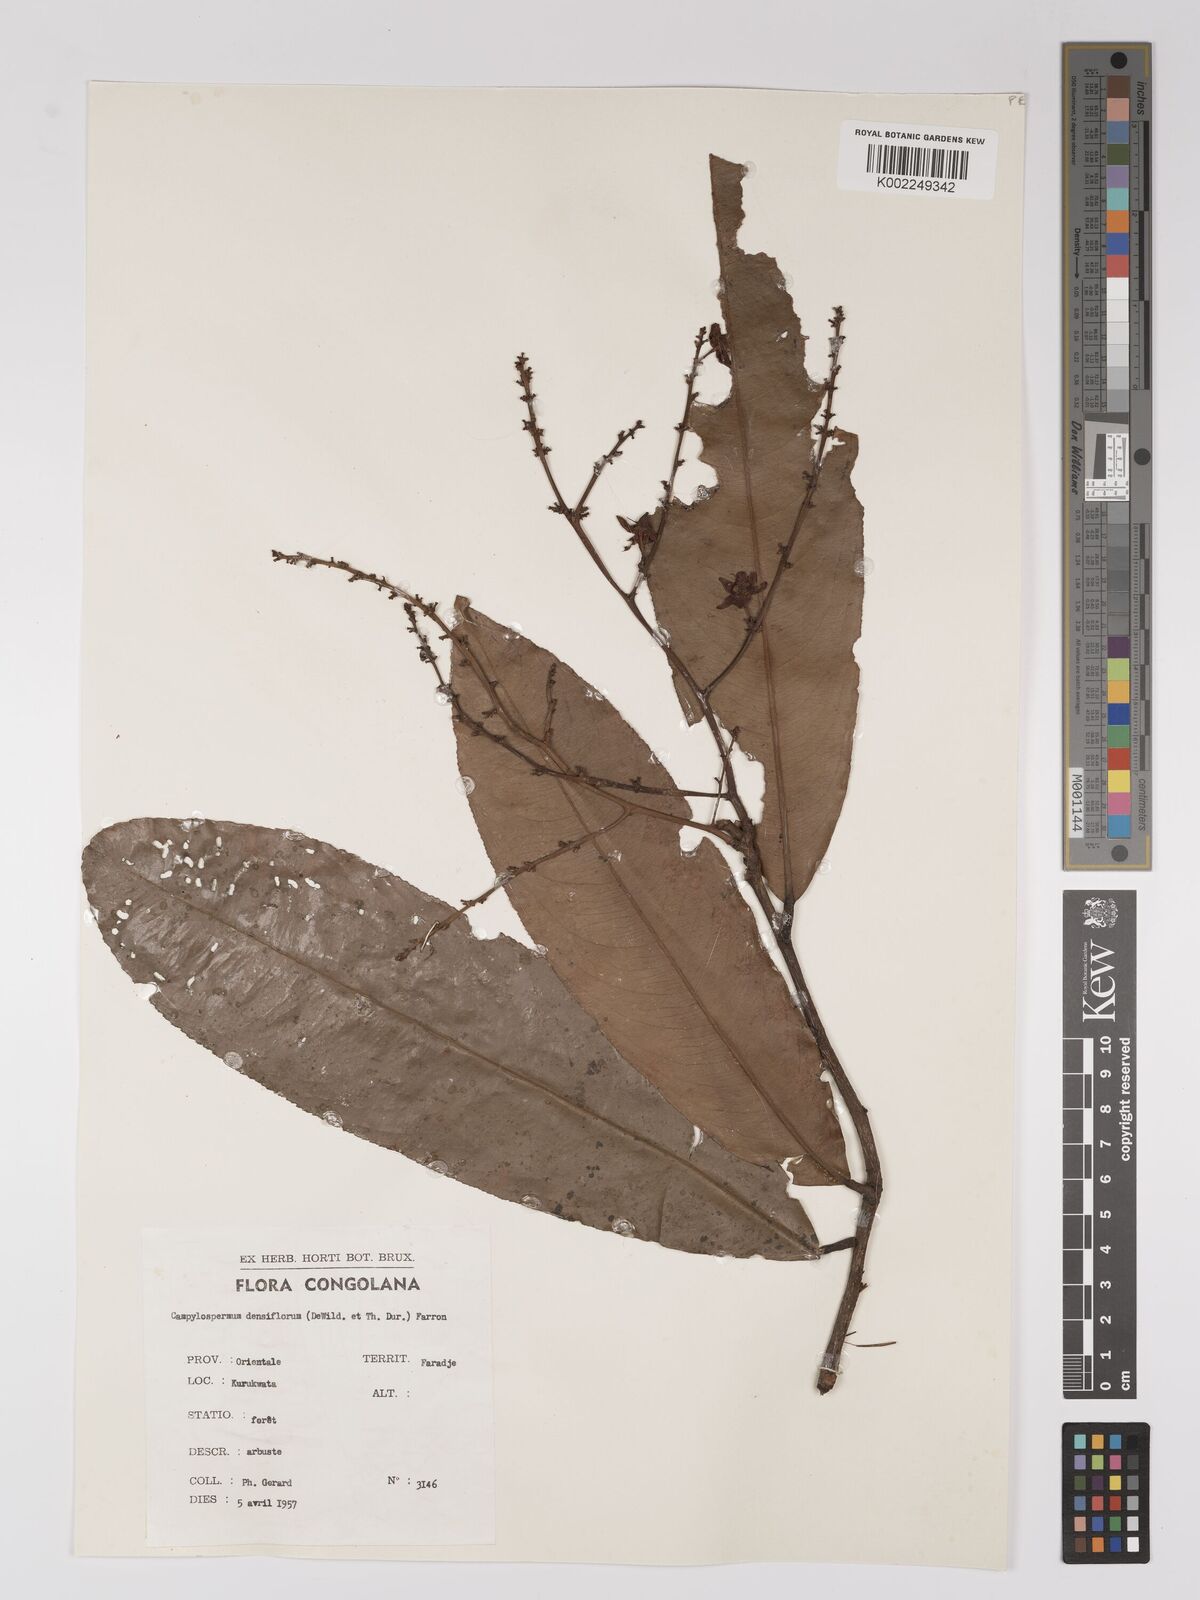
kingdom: Plantae
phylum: Tracheophyta
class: Magnoliopsida
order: Malpighiales
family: Ochnaceae
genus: Gomphia
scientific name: Gomphia densiflora
